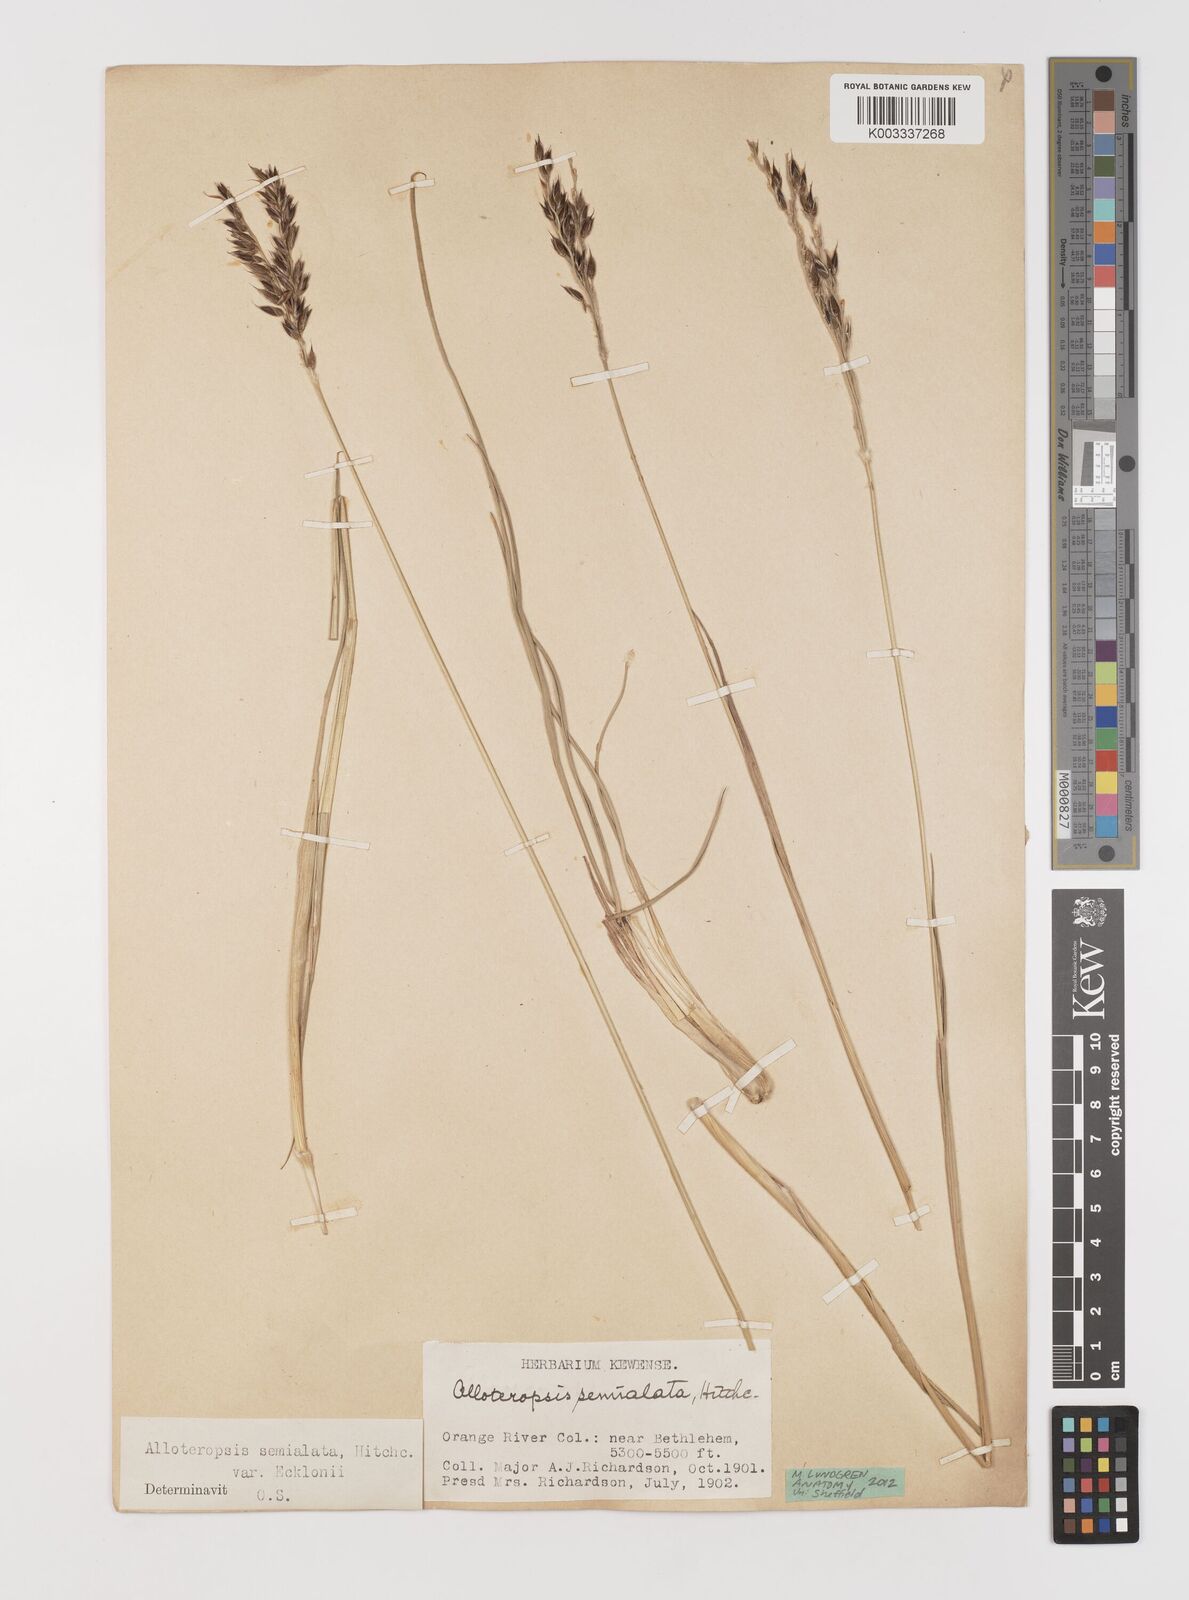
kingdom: Plantae
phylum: Tracheophyta
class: Liliopsida
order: Poales
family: Poaceae
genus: Alloteropsis
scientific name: Alloteropsis semialata
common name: Cockatoo grass
